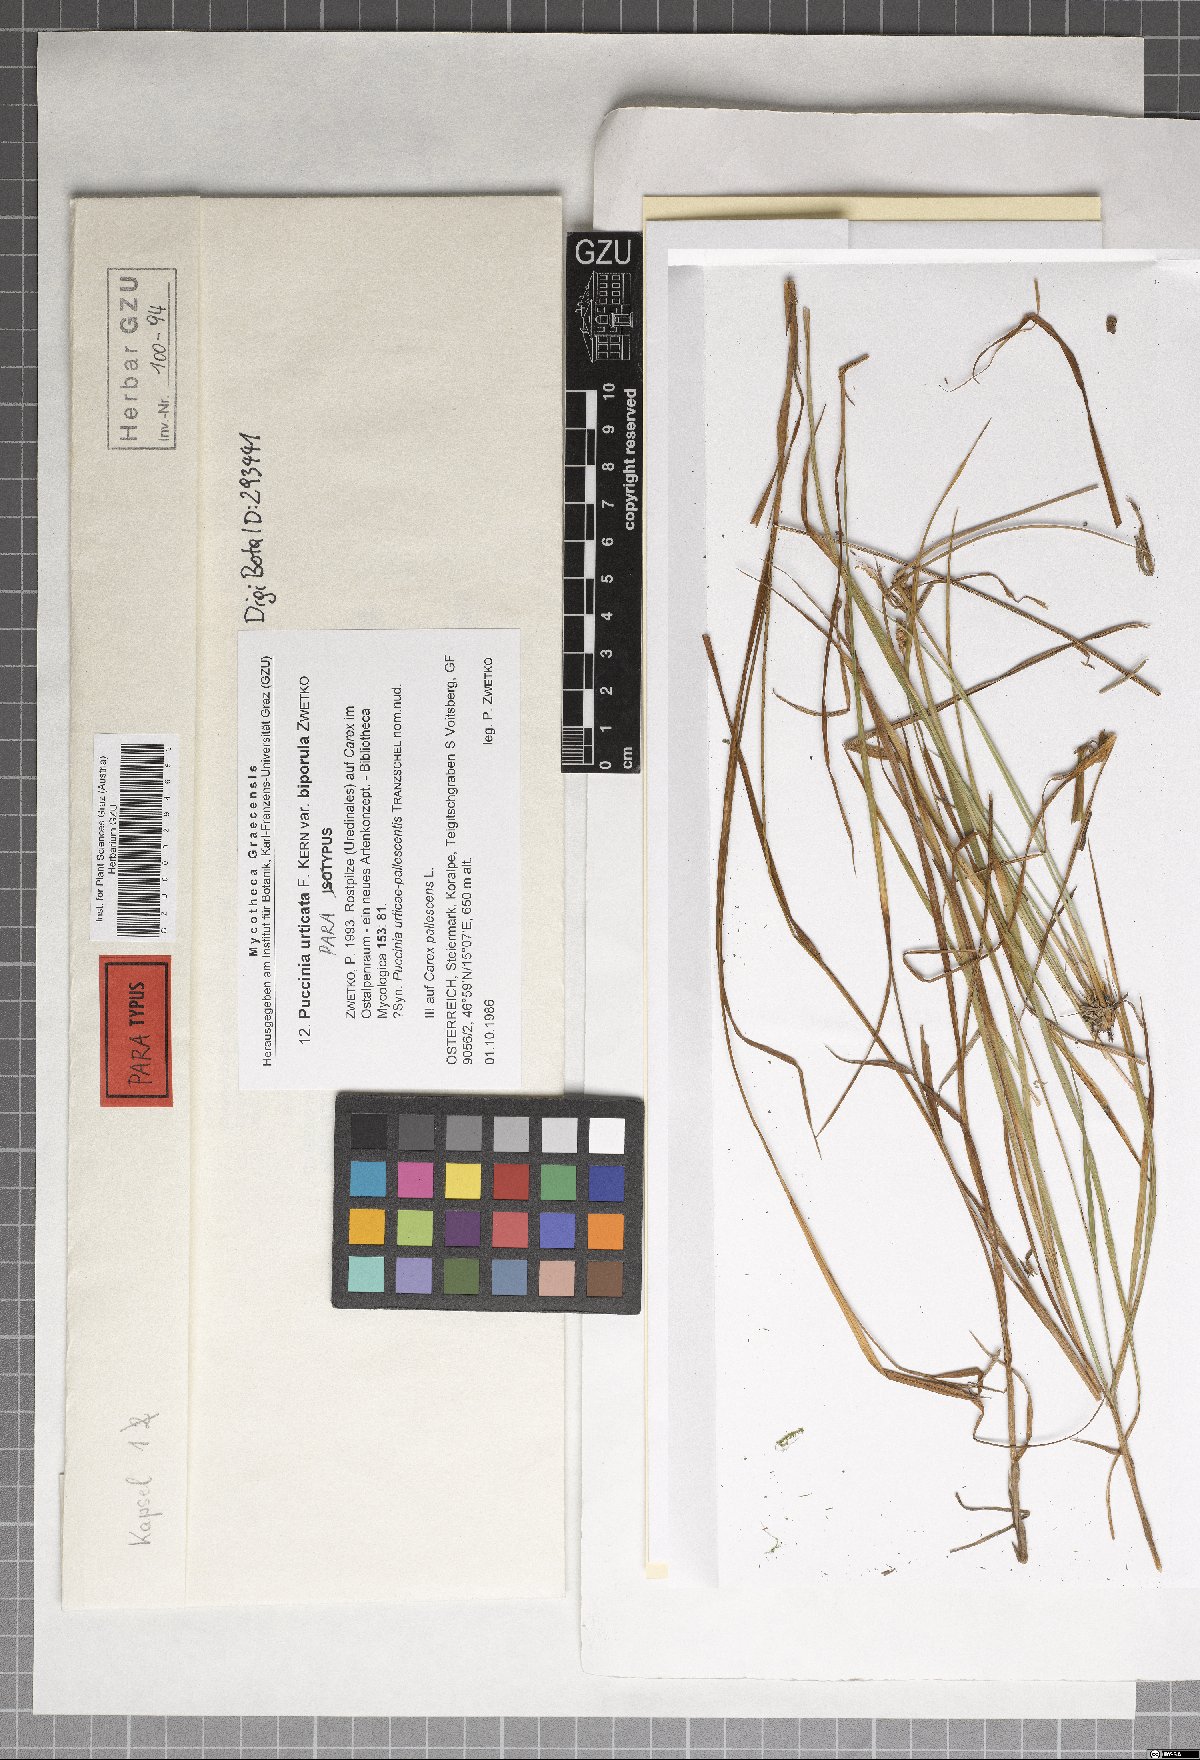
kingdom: Fungi
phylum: Basidiomycota
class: Pucciniomycetes
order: Pucciniales
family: Pucciniaceae
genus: Puccinia
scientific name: Puccinia biporospora
